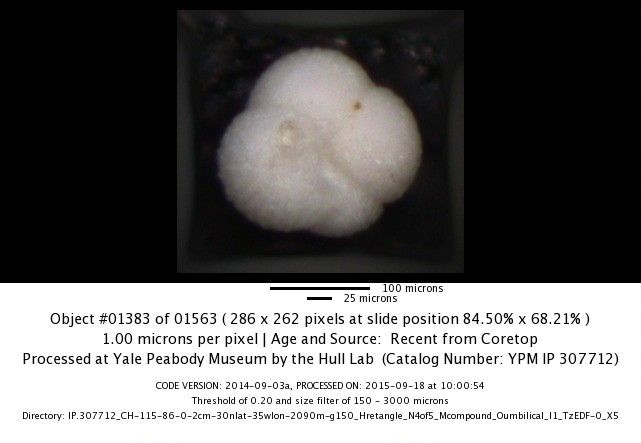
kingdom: Chromista
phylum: Foraminifera
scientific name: Foraminifera
